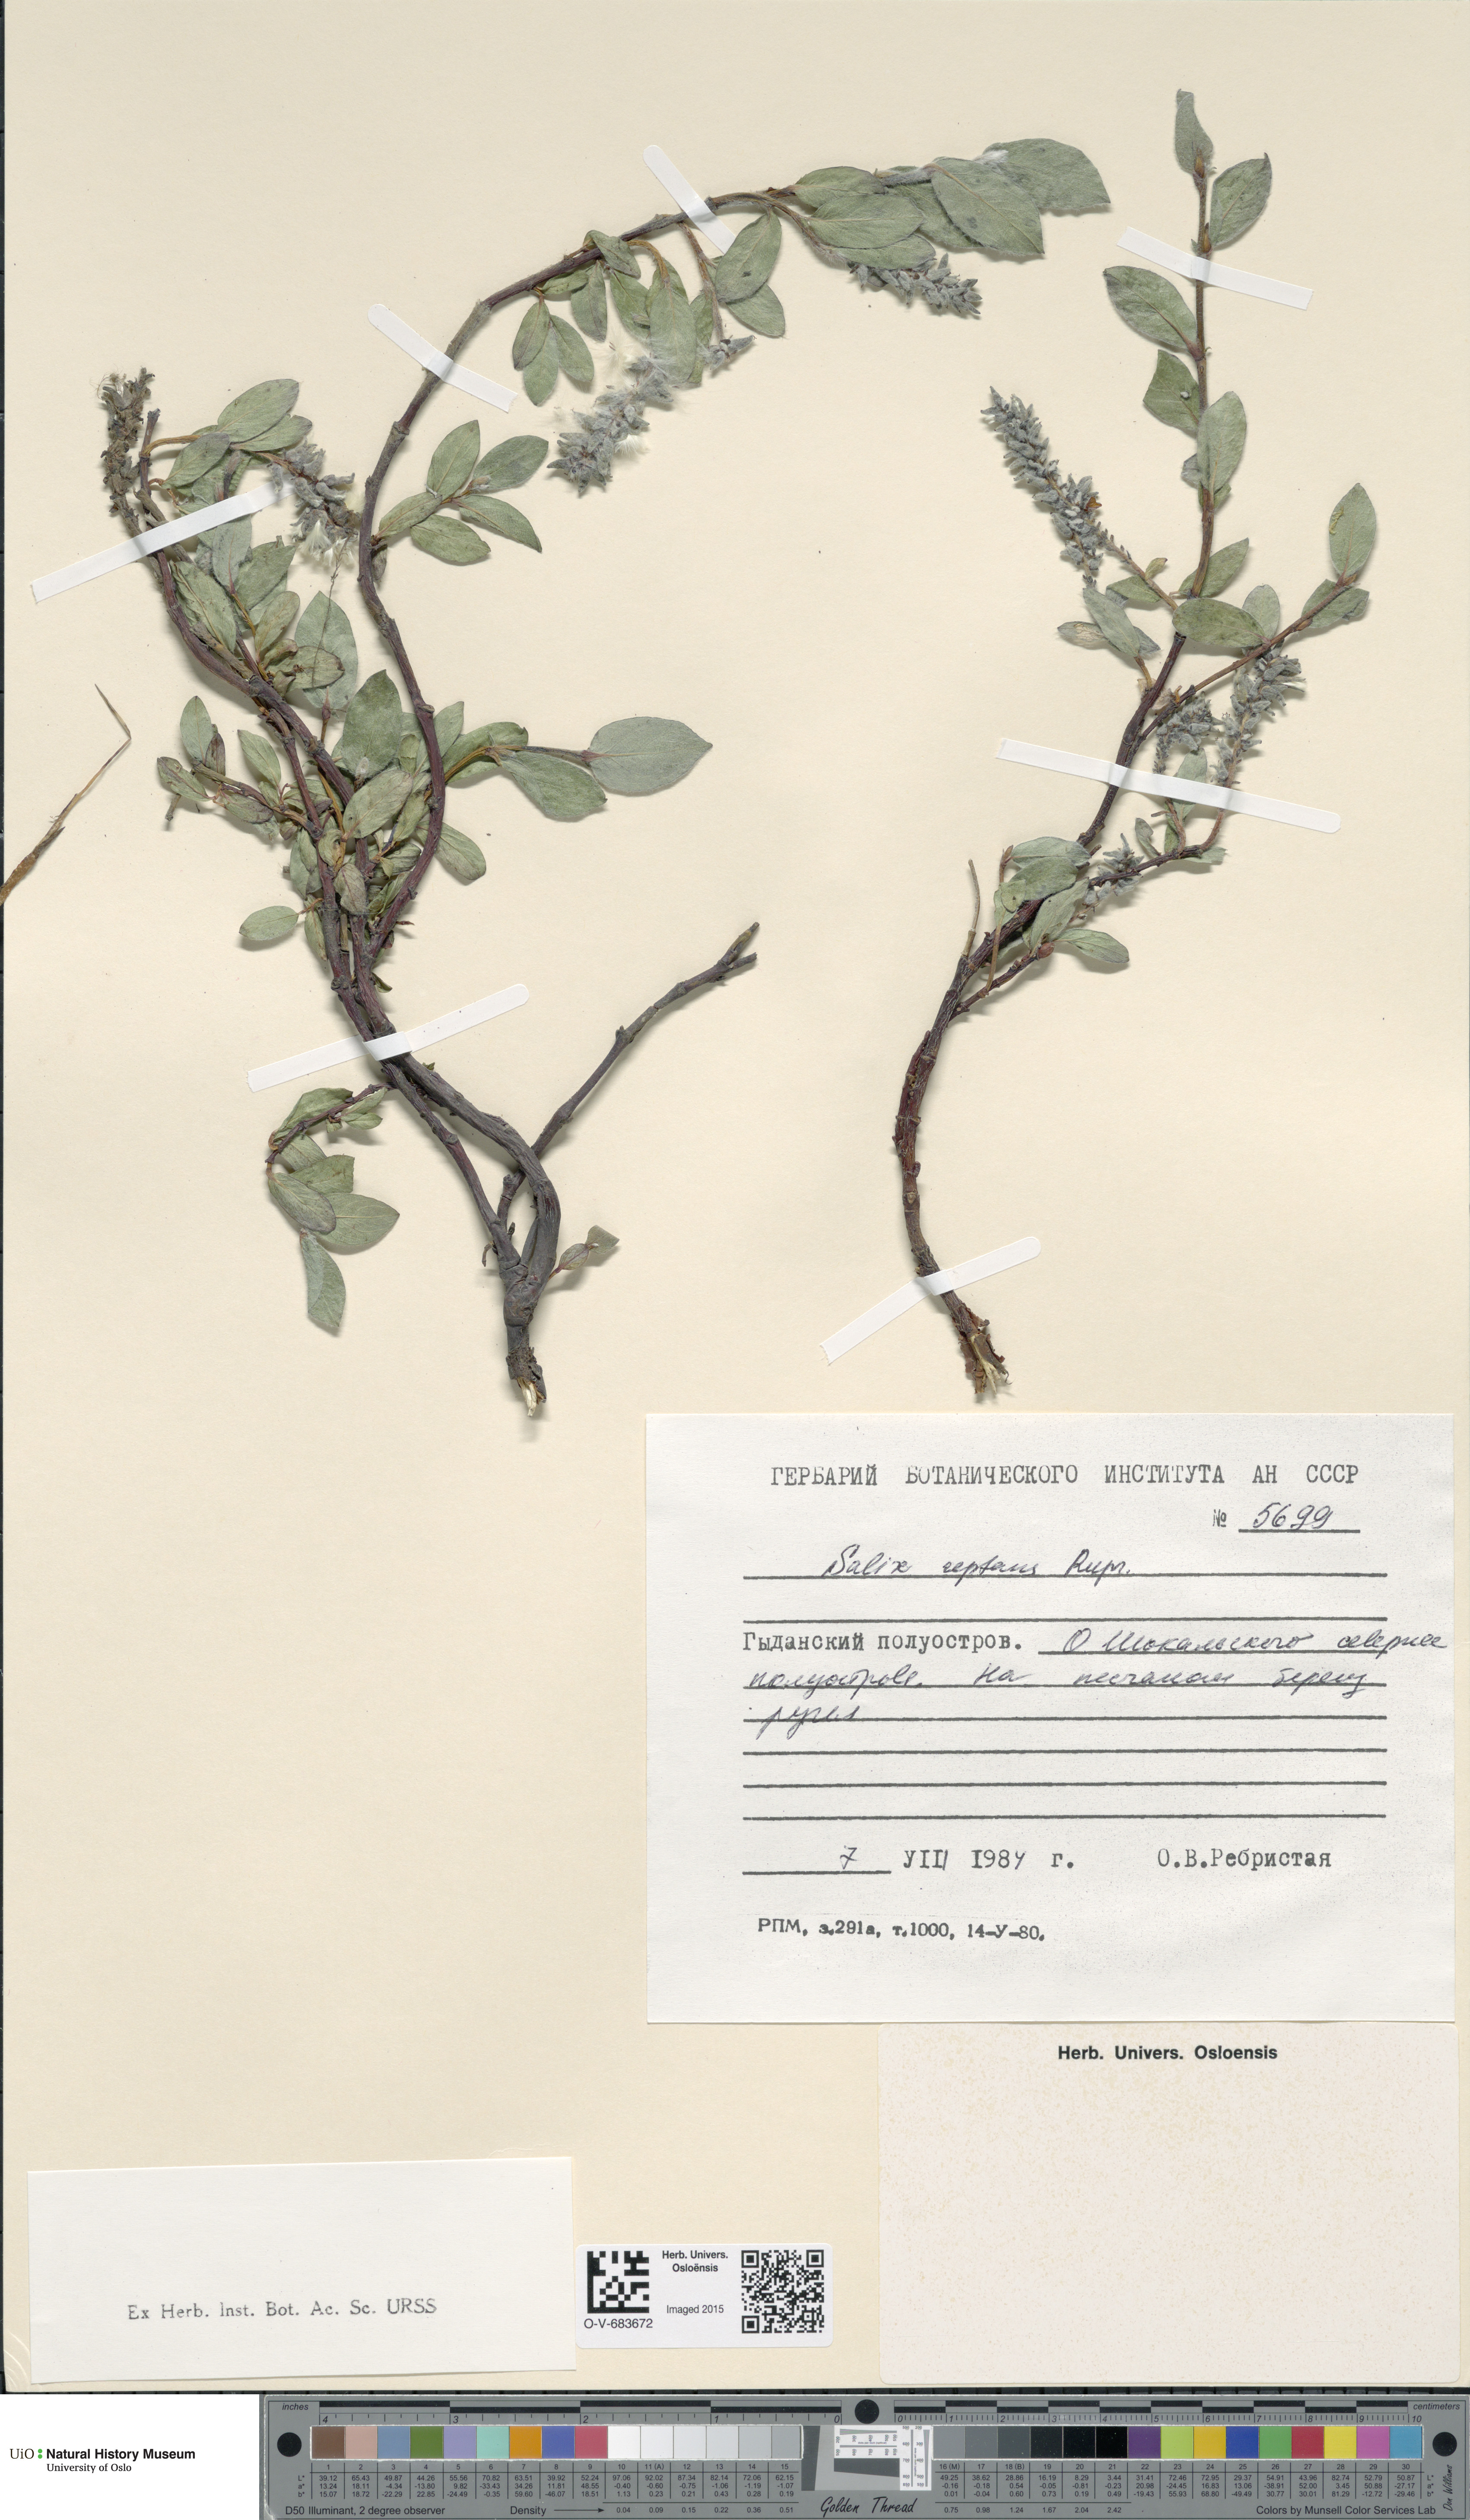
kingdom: Plantae
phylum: Tracheophyta
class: Magnoliopsida
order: Malpighiales
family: Salicaceae
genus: Salix
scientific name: Salix reptans
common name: Arctic creeping willow
